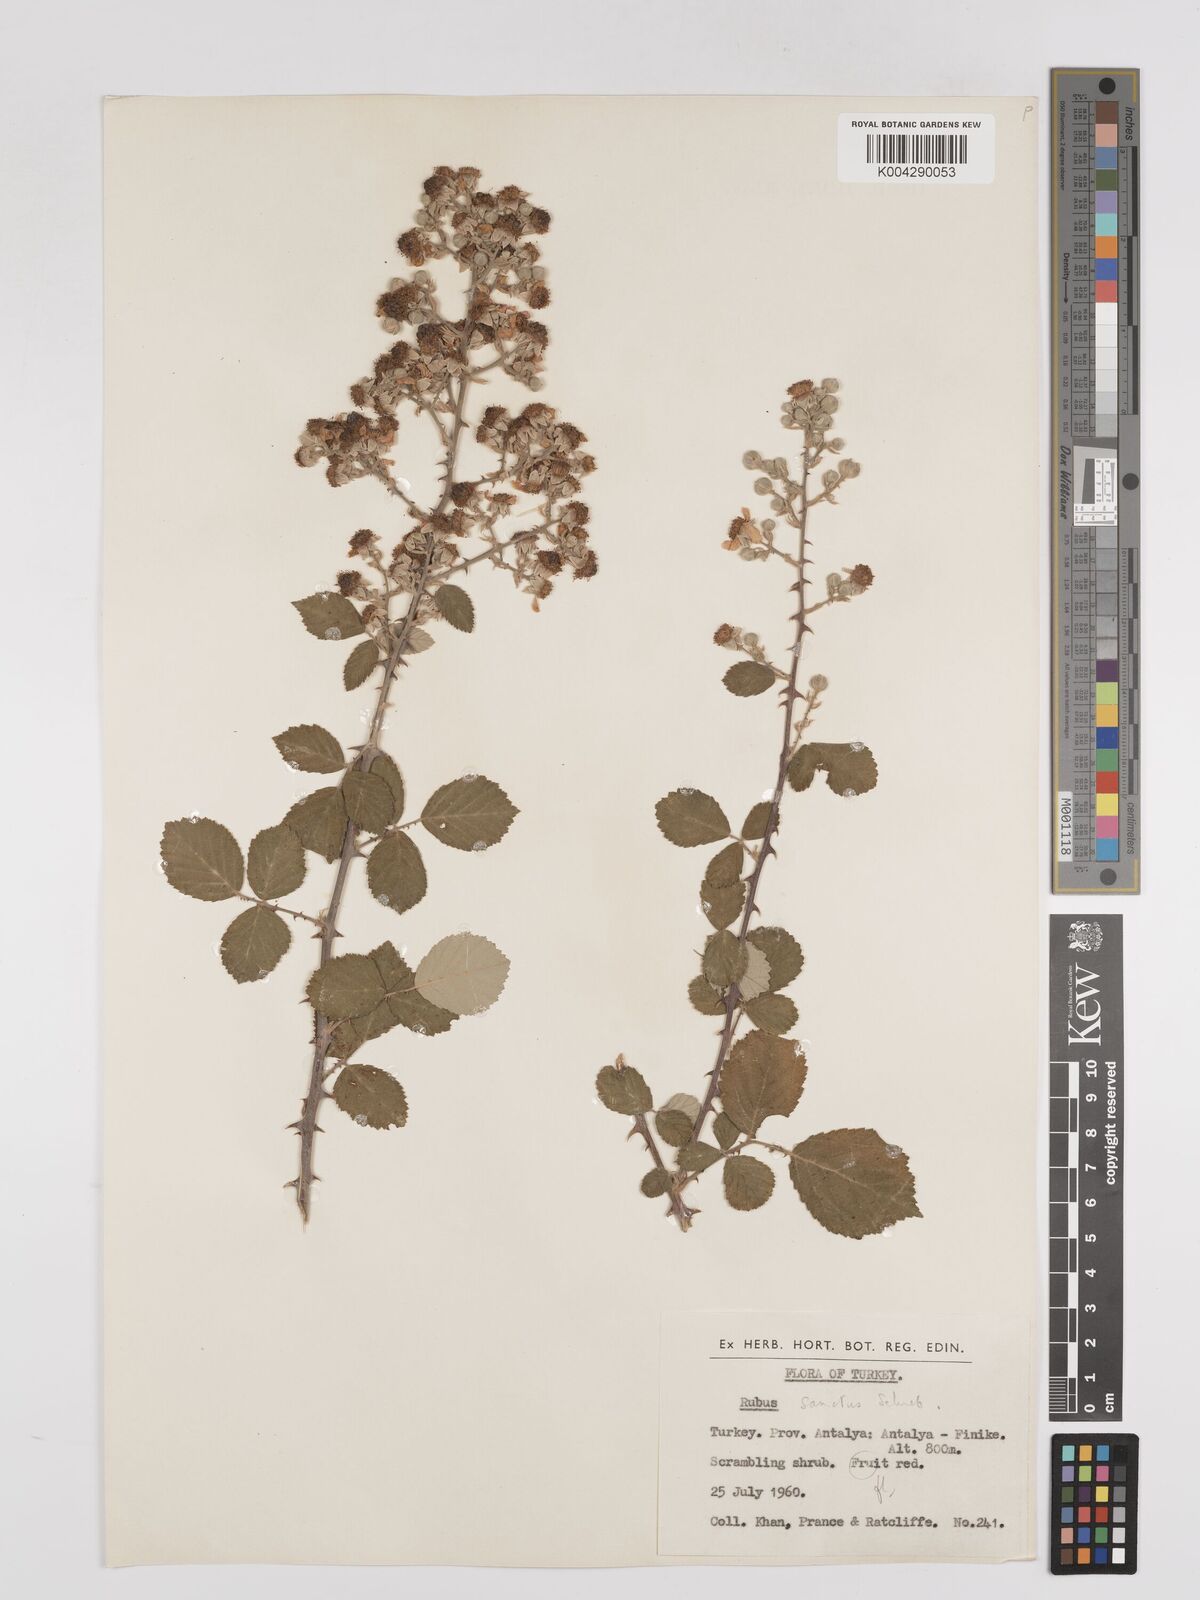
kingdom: Plantae
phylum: Tracheophyta
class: Magnoliopsida
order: Rosales
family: Rosaceae
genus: Rubus
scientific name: Rubus sanctus
